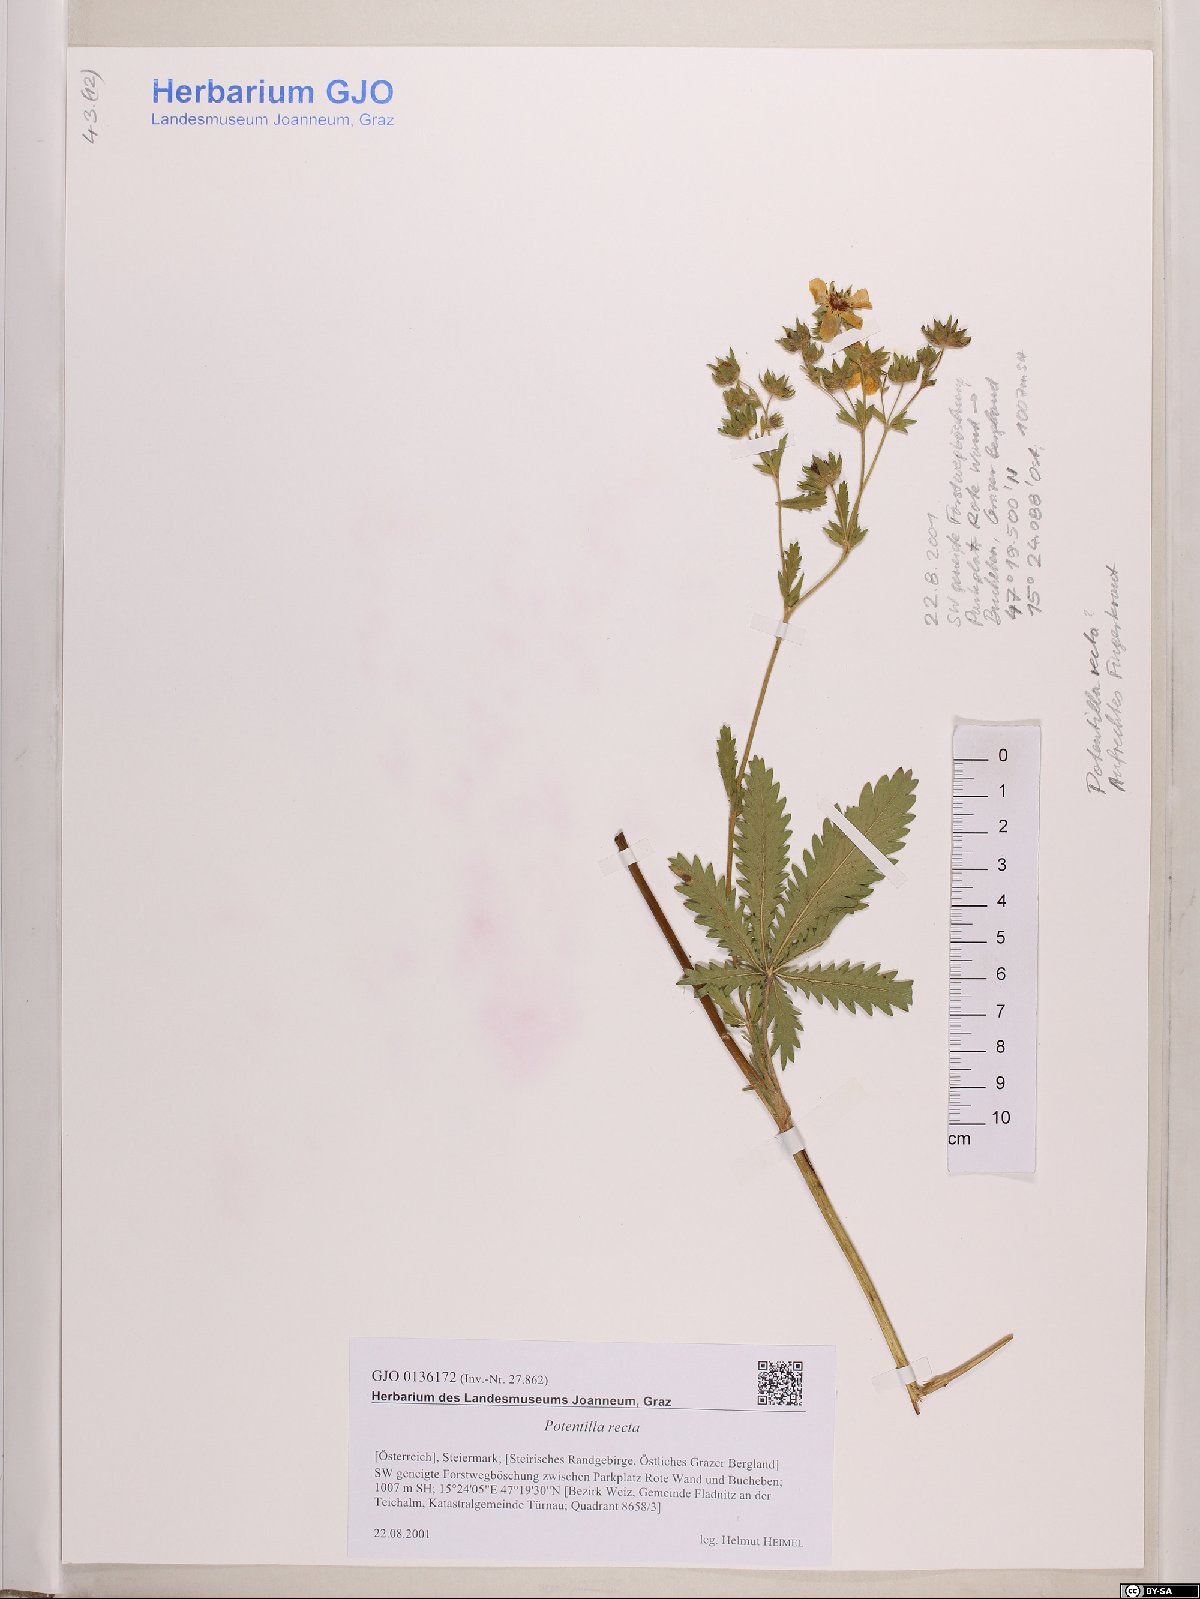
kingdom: Plantae
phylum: Tracheophyta
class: Magnoliopsida
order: Rosales
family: Rosaceae
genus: Potentilla
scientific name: Potentilla recta
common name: Sulphur cinquefoil
